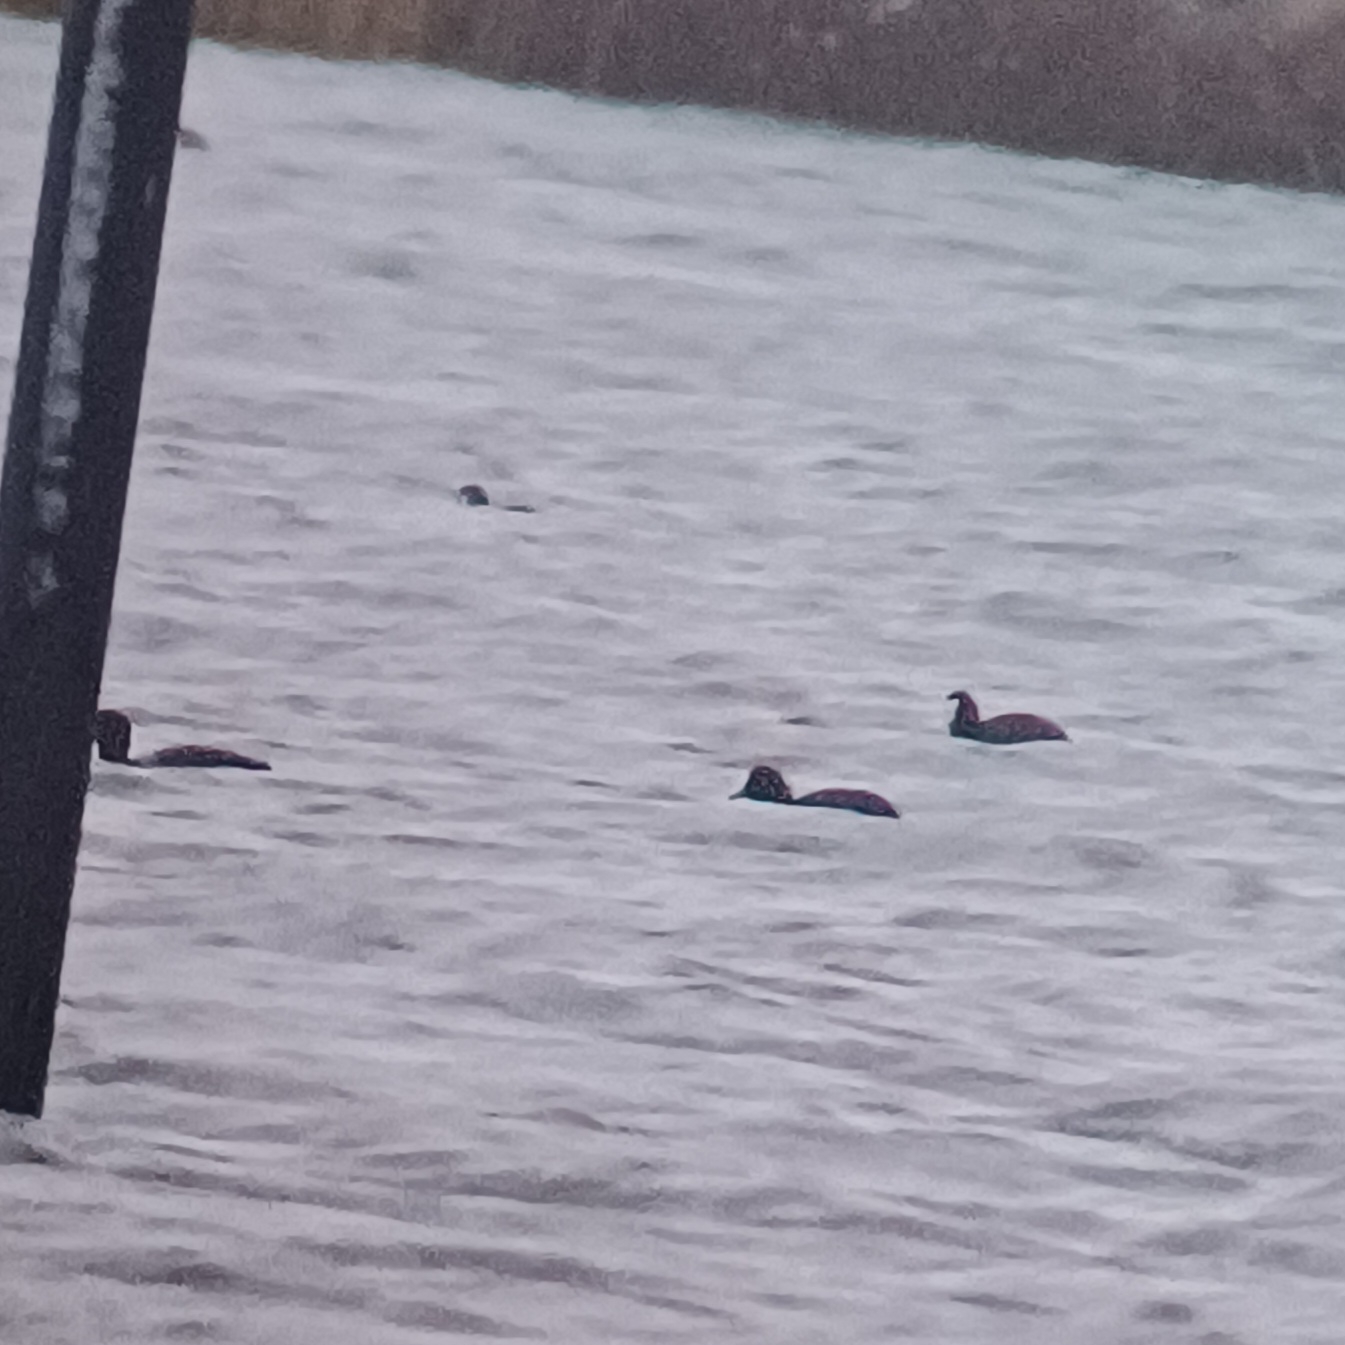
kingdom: Animalia
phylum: Chordata
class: Aves
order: Gruiformes
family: Rallidae
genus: Fulica
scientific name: Fulica atra
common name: Blishøne
